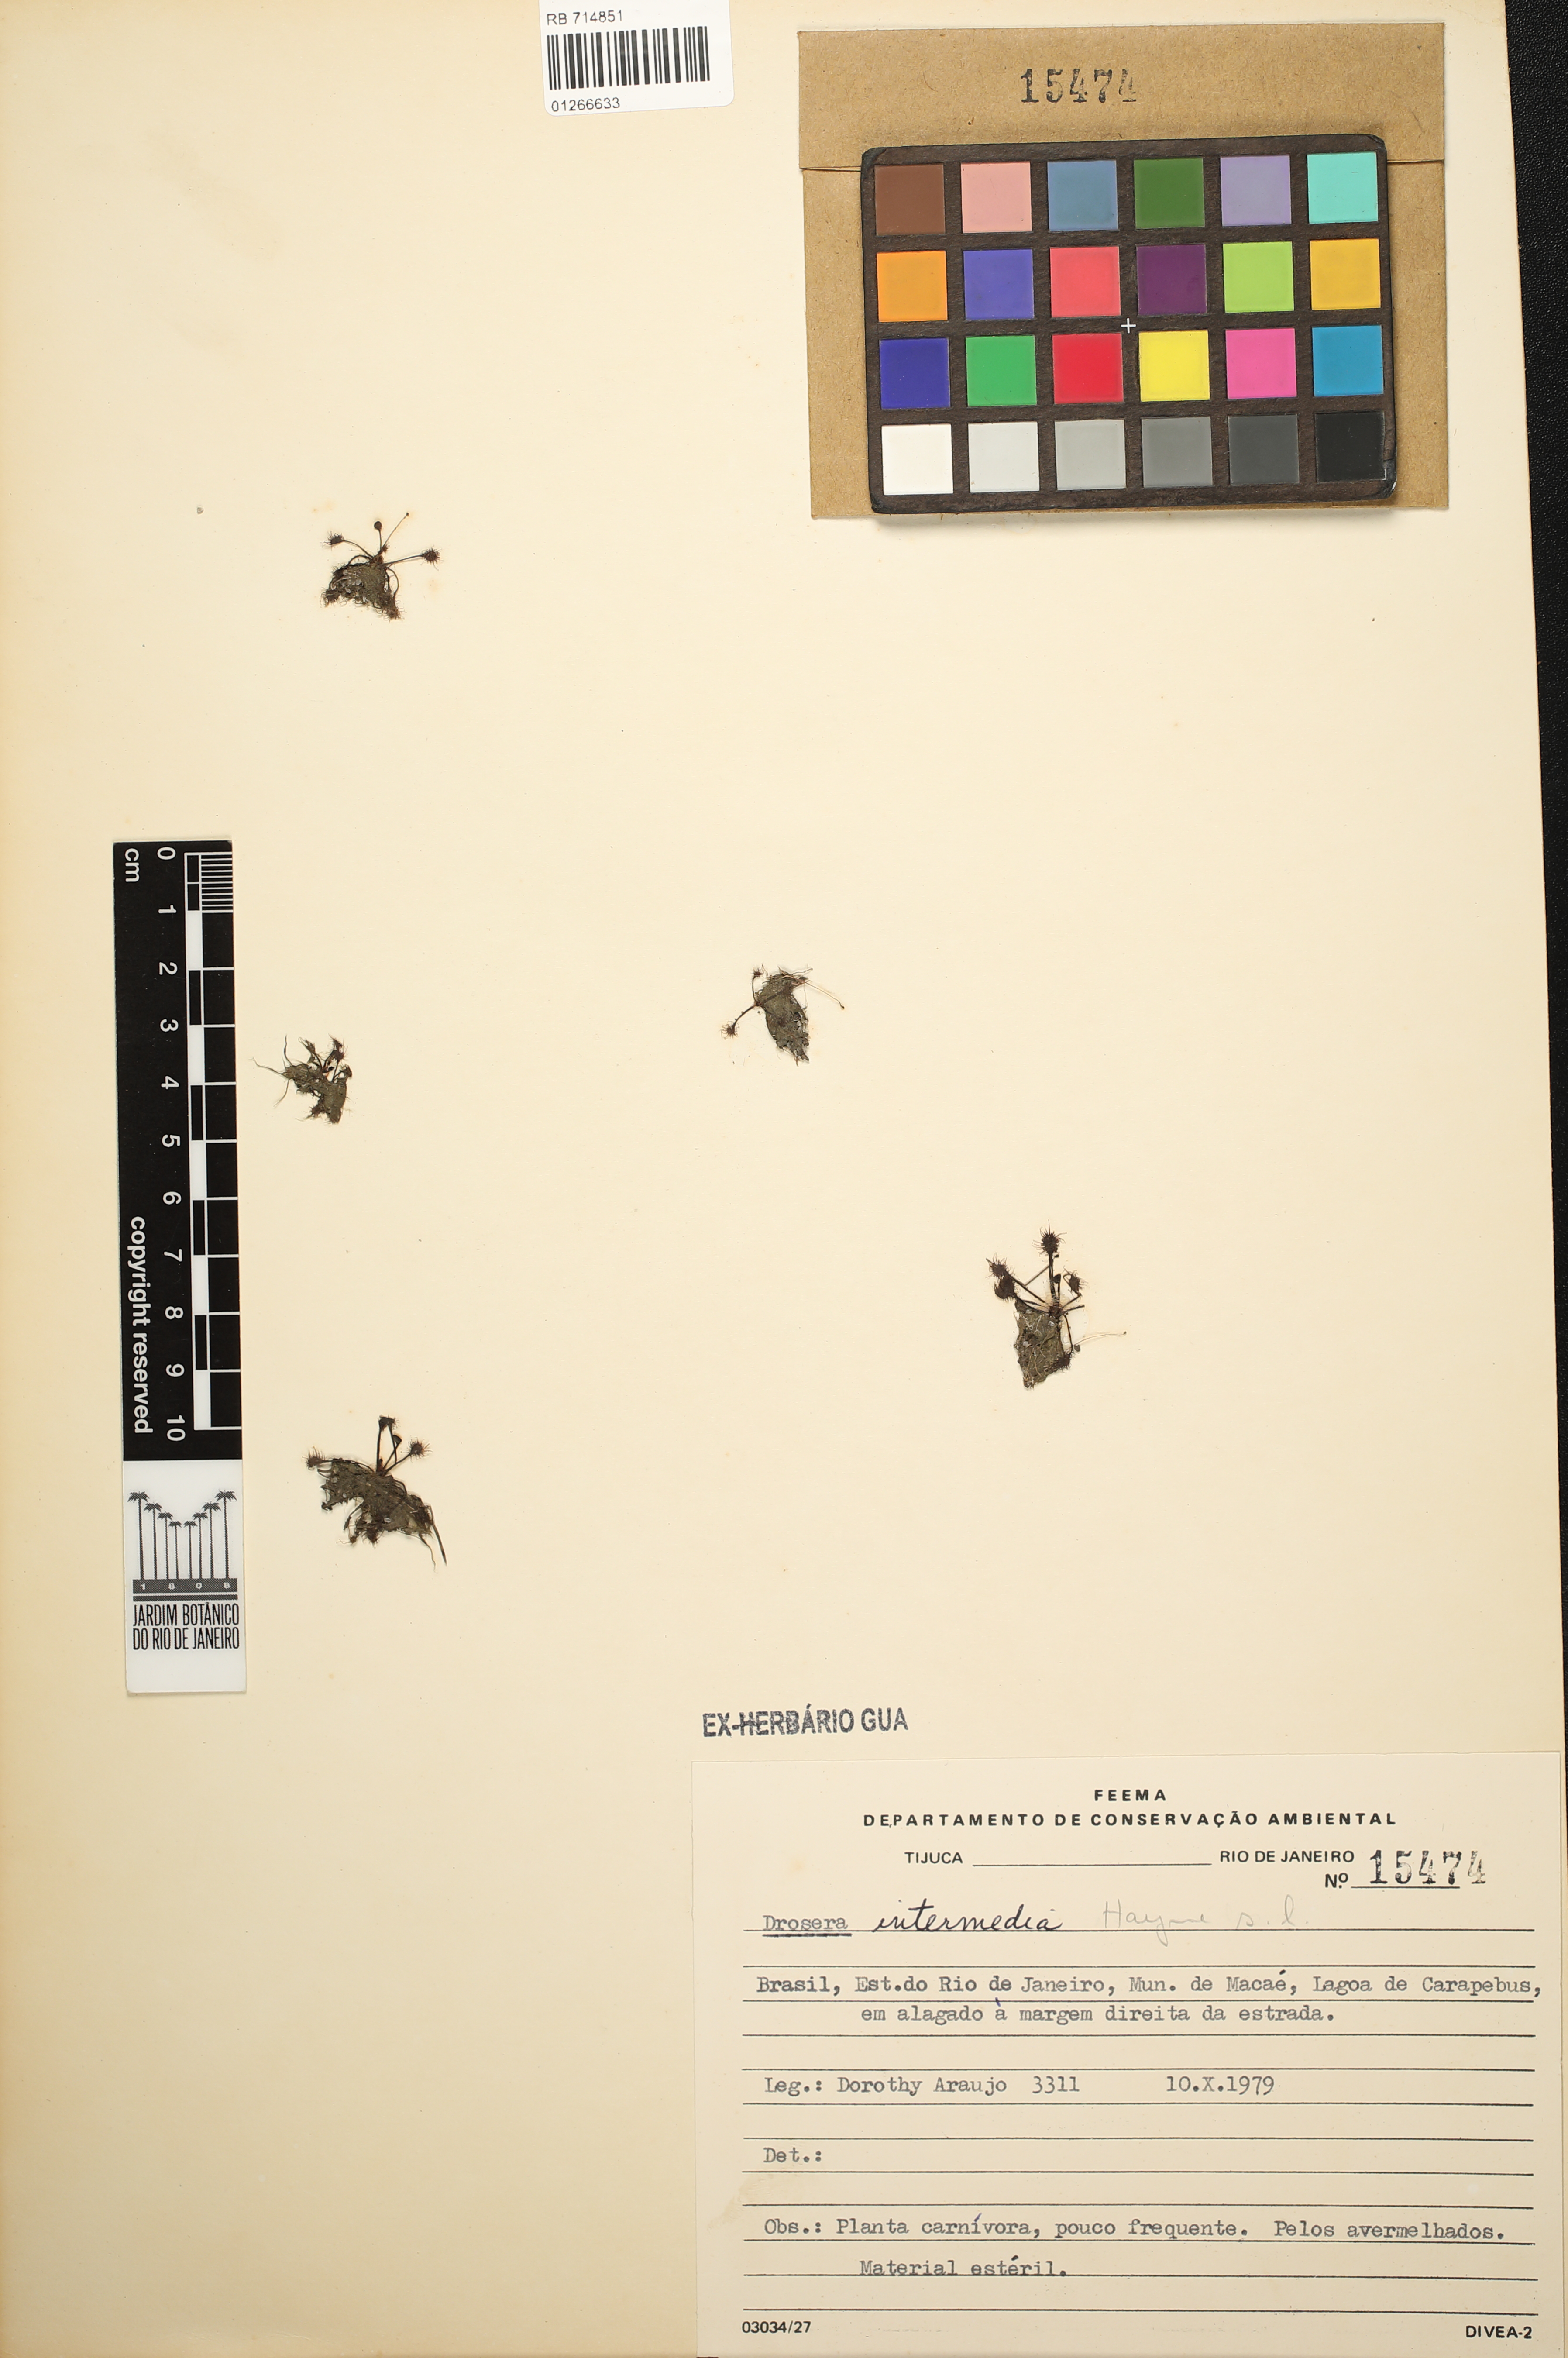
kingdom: Plantae
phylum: Tracheophyta
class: Magnoliopsida
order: Caryophyllales
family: Droseraceae
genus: Drosera
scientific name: Drosera intermedia
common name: Oblong-leaved sundew
